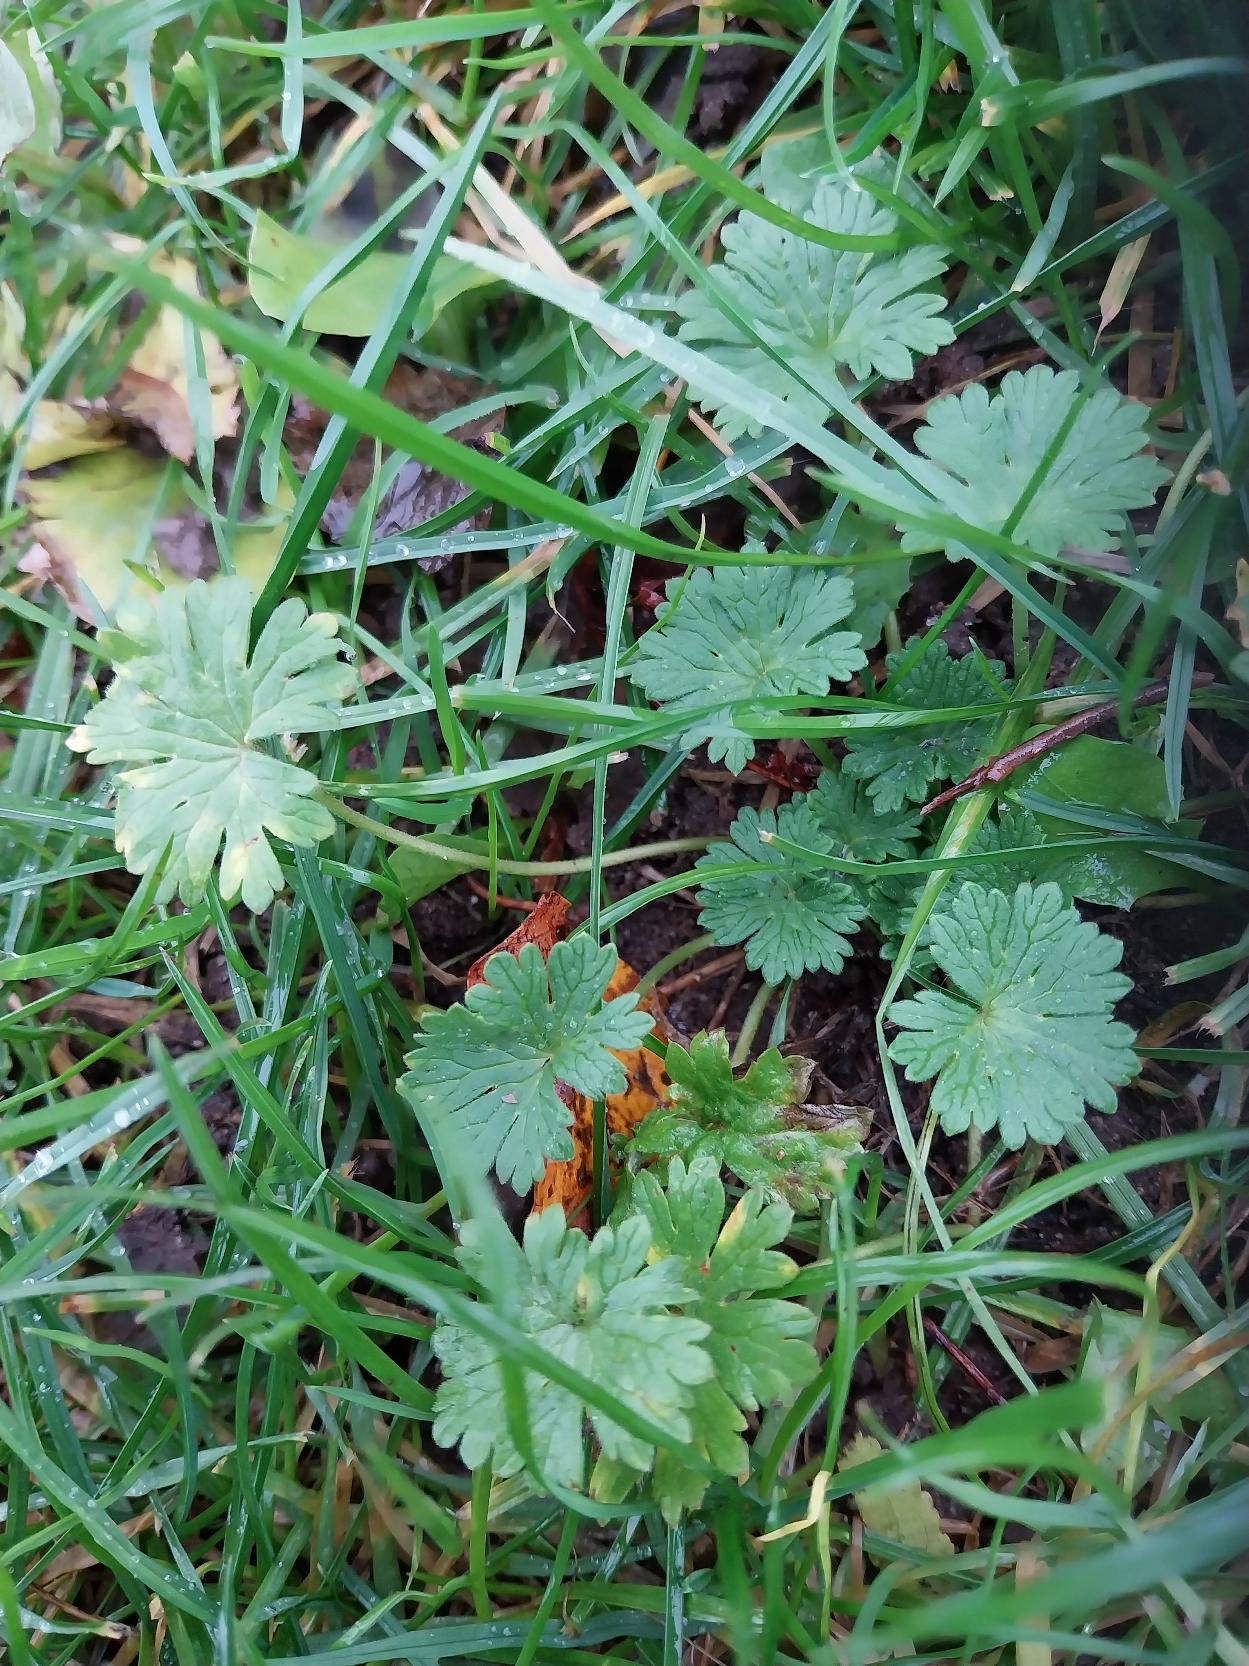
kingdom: Plantae
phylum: Tracheophyta
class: Magnoliopsida
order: Geraniales
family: Geraniaceae
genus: Geranium
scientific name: Geranium pusillum
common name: Liden storkenæb
